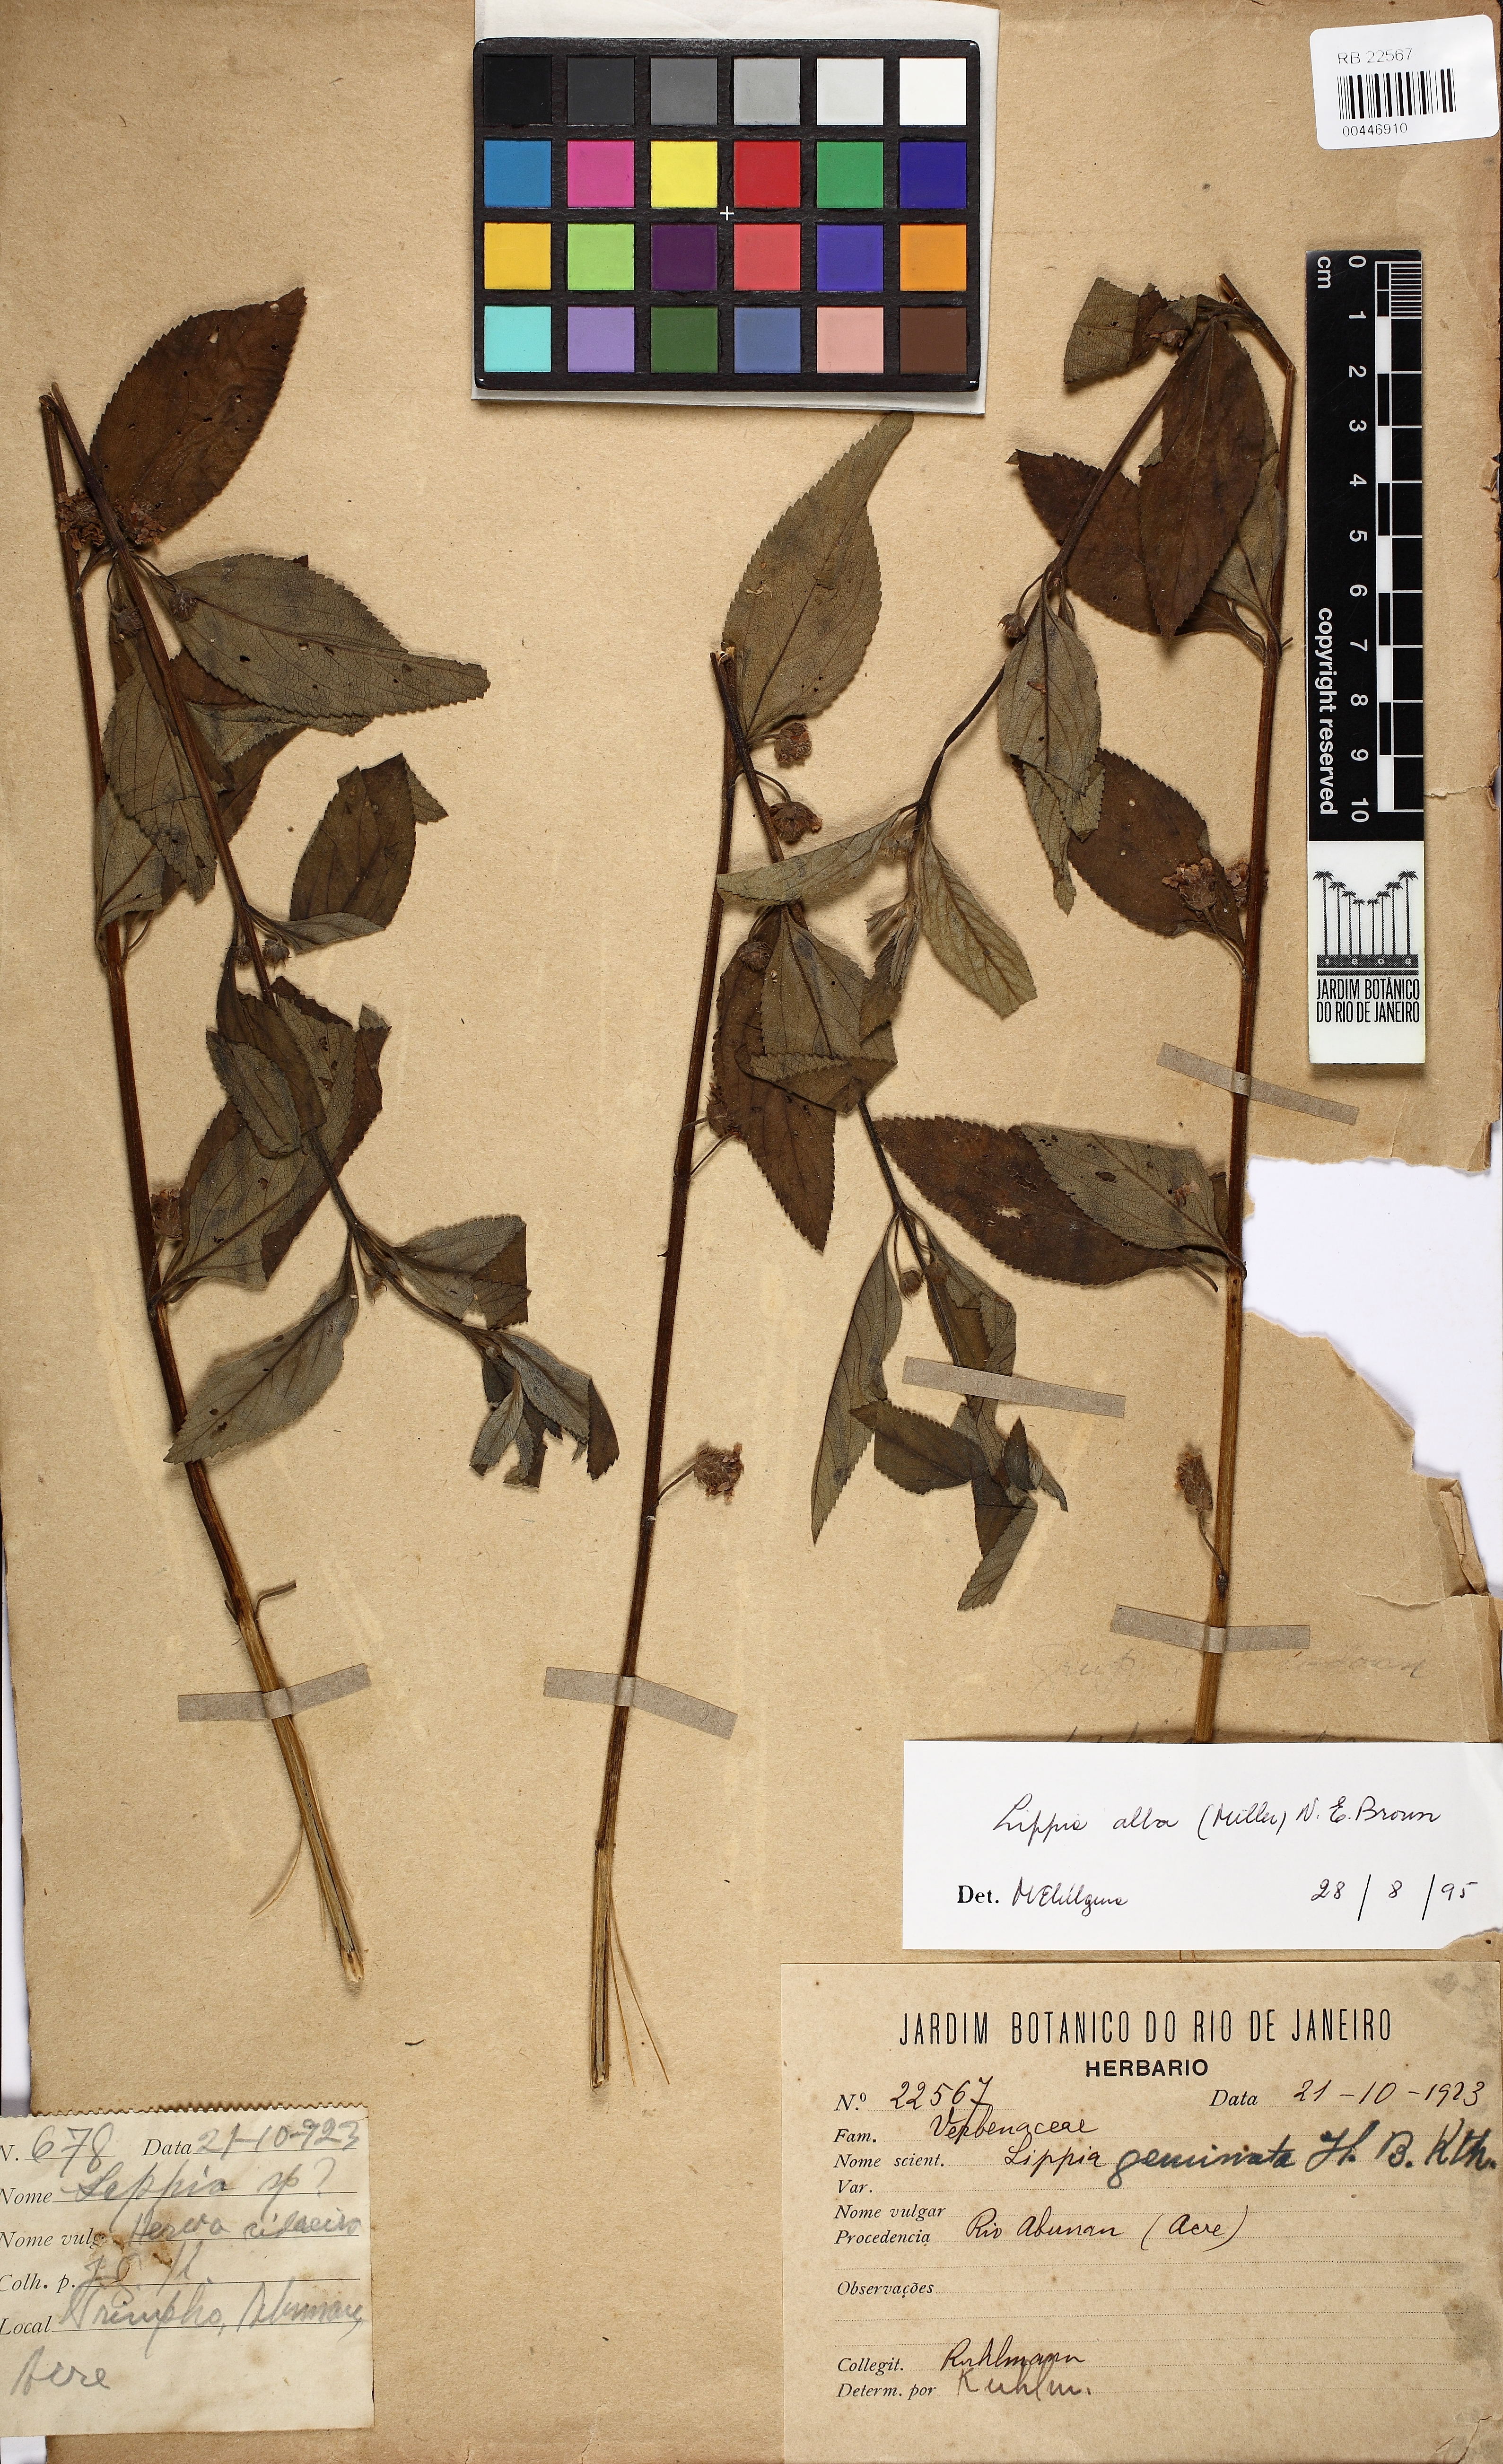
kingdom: Plantae
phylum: Tracheophyta
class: Magnoliopsida
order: Lamiales
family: Verbenaceae
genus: Lippia
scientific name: Lippia alba
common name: Bushy matgrass
